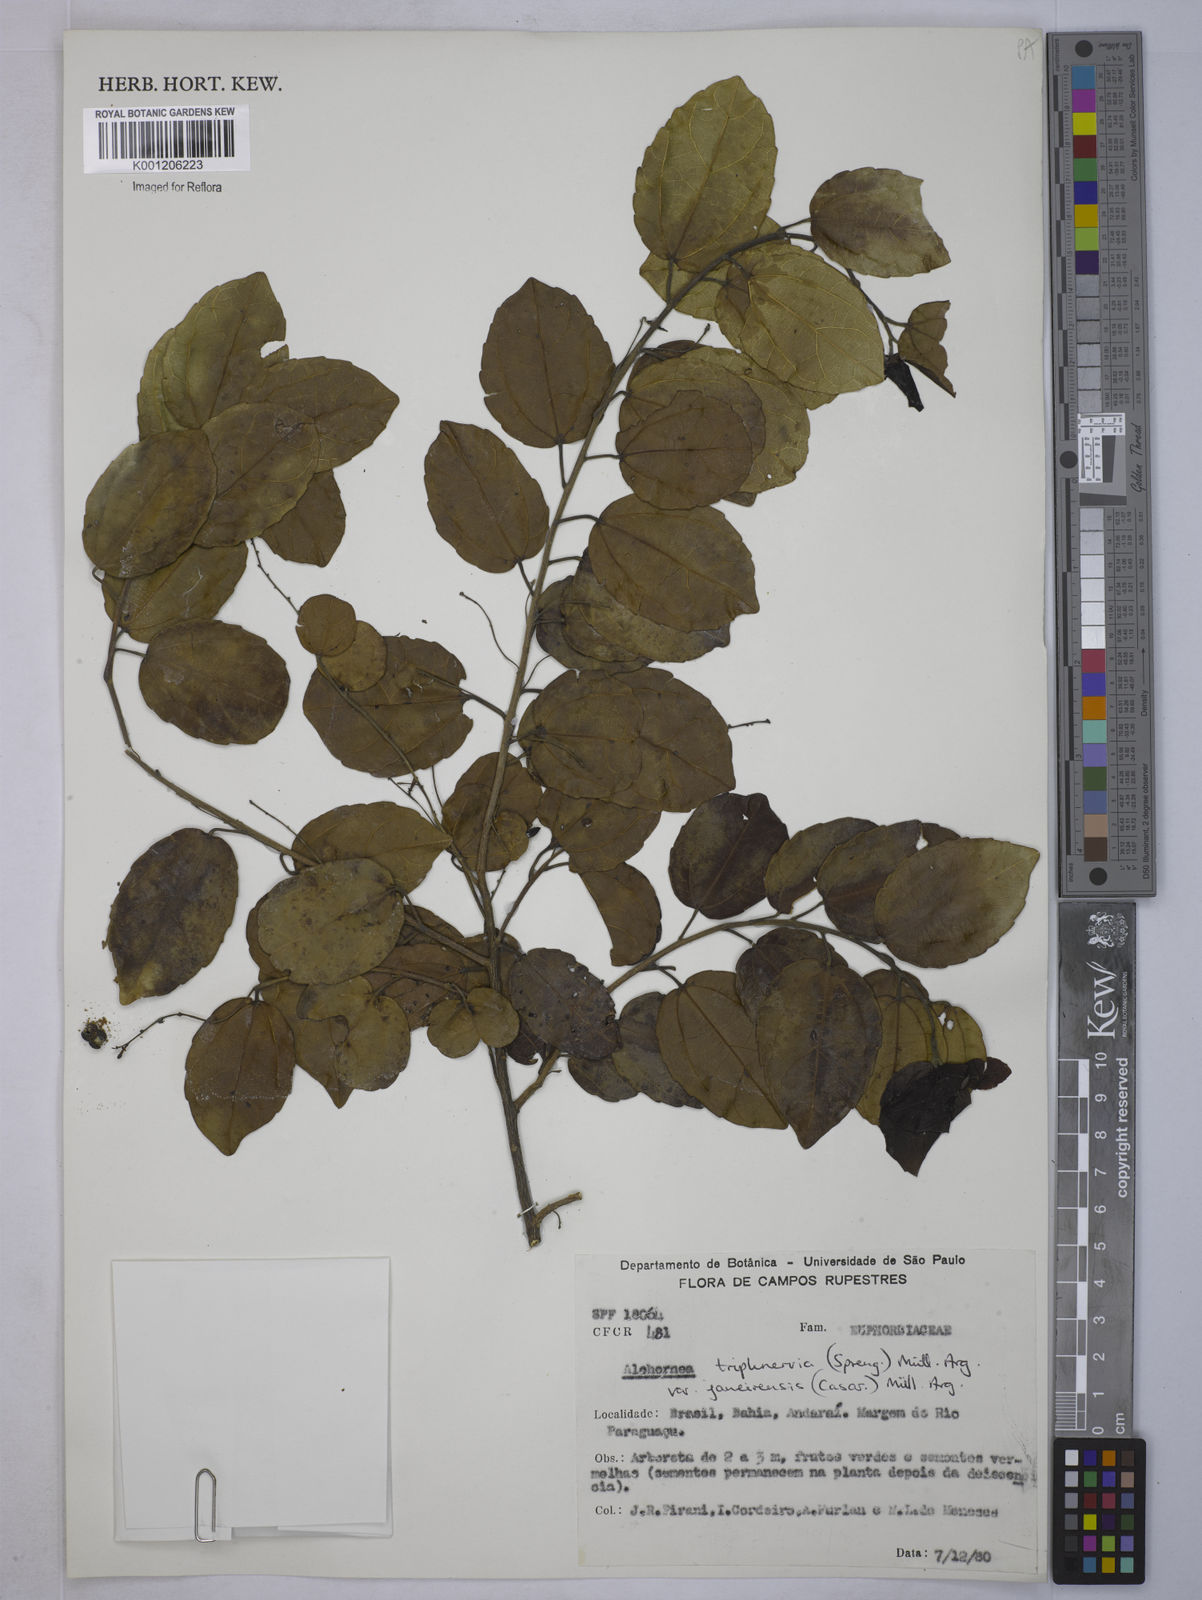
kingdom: Plantae
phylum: Tracheophyta
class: Magnoliopsida
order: Malpighiales
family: Euphorbiaceae
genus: Alchornea
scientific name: Alchornea
